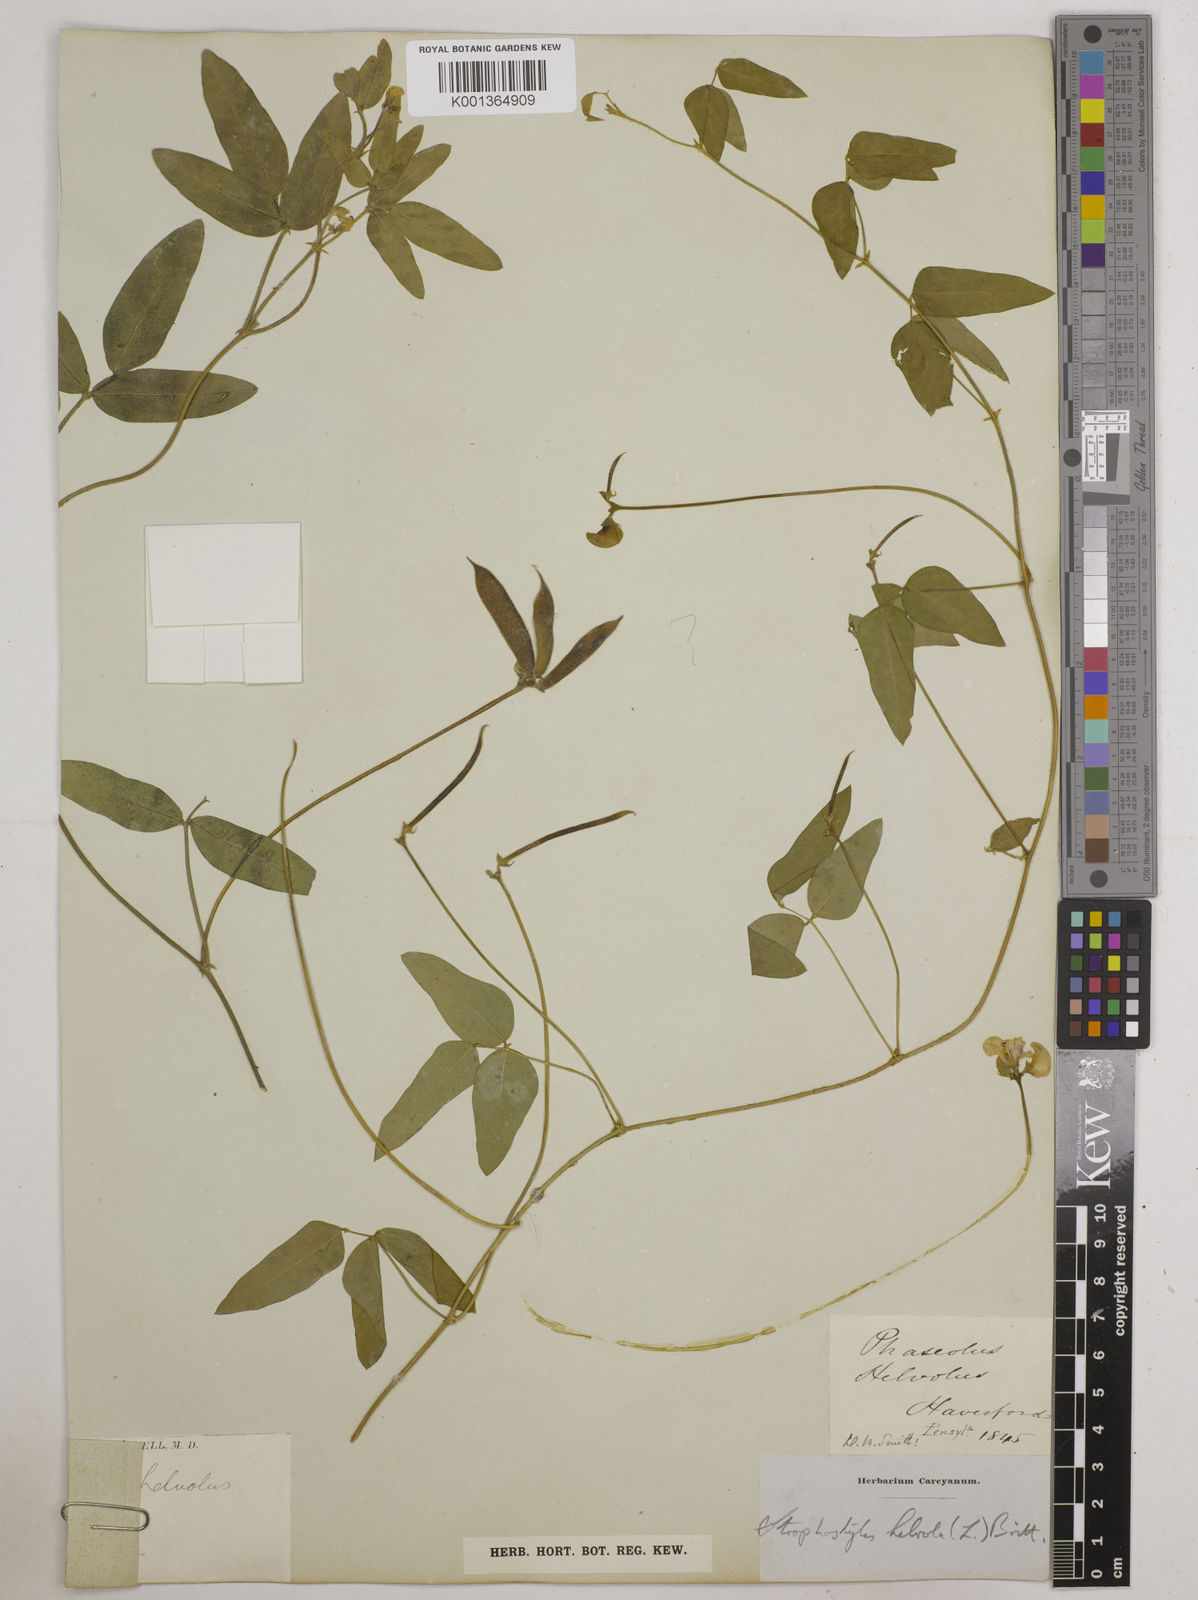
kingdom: Plantae
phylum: Tracheophyta
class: Magnoliopsida
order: Fabales
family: Fabaceae
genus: Strophostyles
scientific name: Strophostyles
